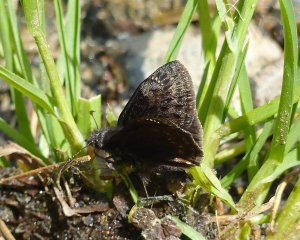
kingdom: Animalia
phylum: Arthropoda
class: Insecta
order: Lepidoptera
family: Hesperiidae
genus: Gesta
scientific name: Gesta
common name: Columbine Duskywing
